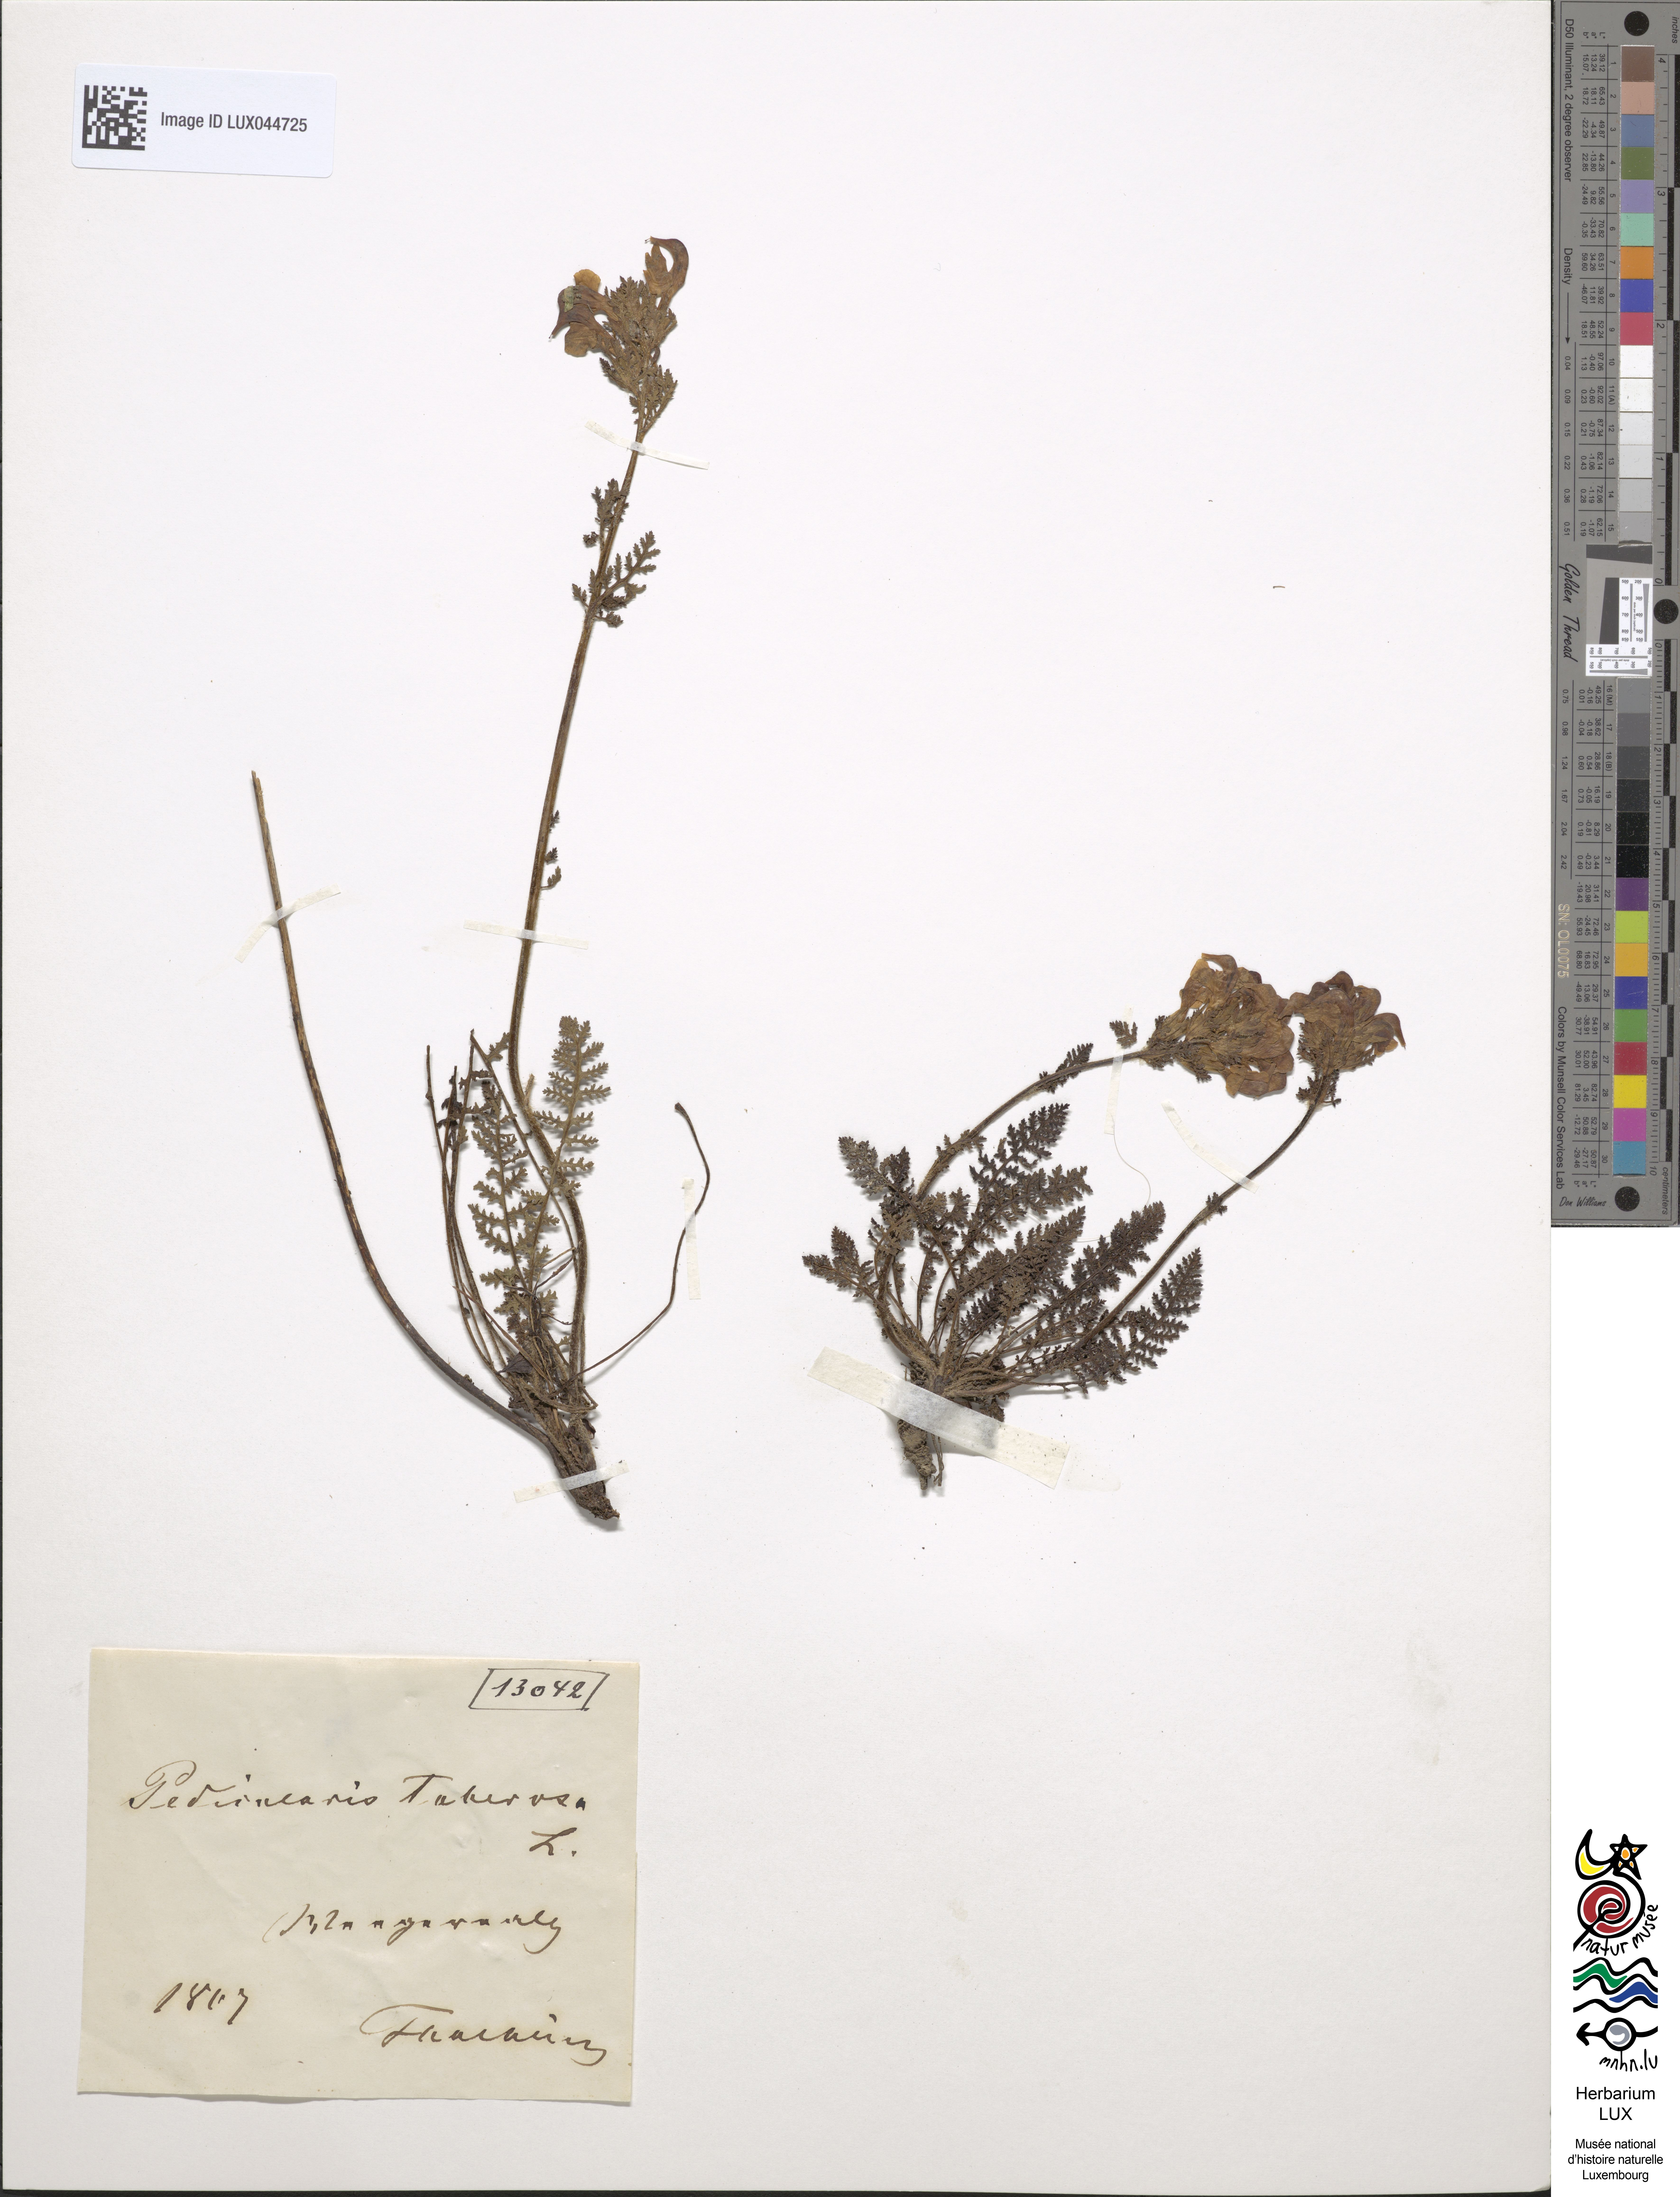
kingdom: Plantae
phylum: Tracheophyta
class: Magnoliopsida
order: Lamiales
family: Orobanchaceae
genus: Pedicularis
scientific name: Pedicularis tuberosa
